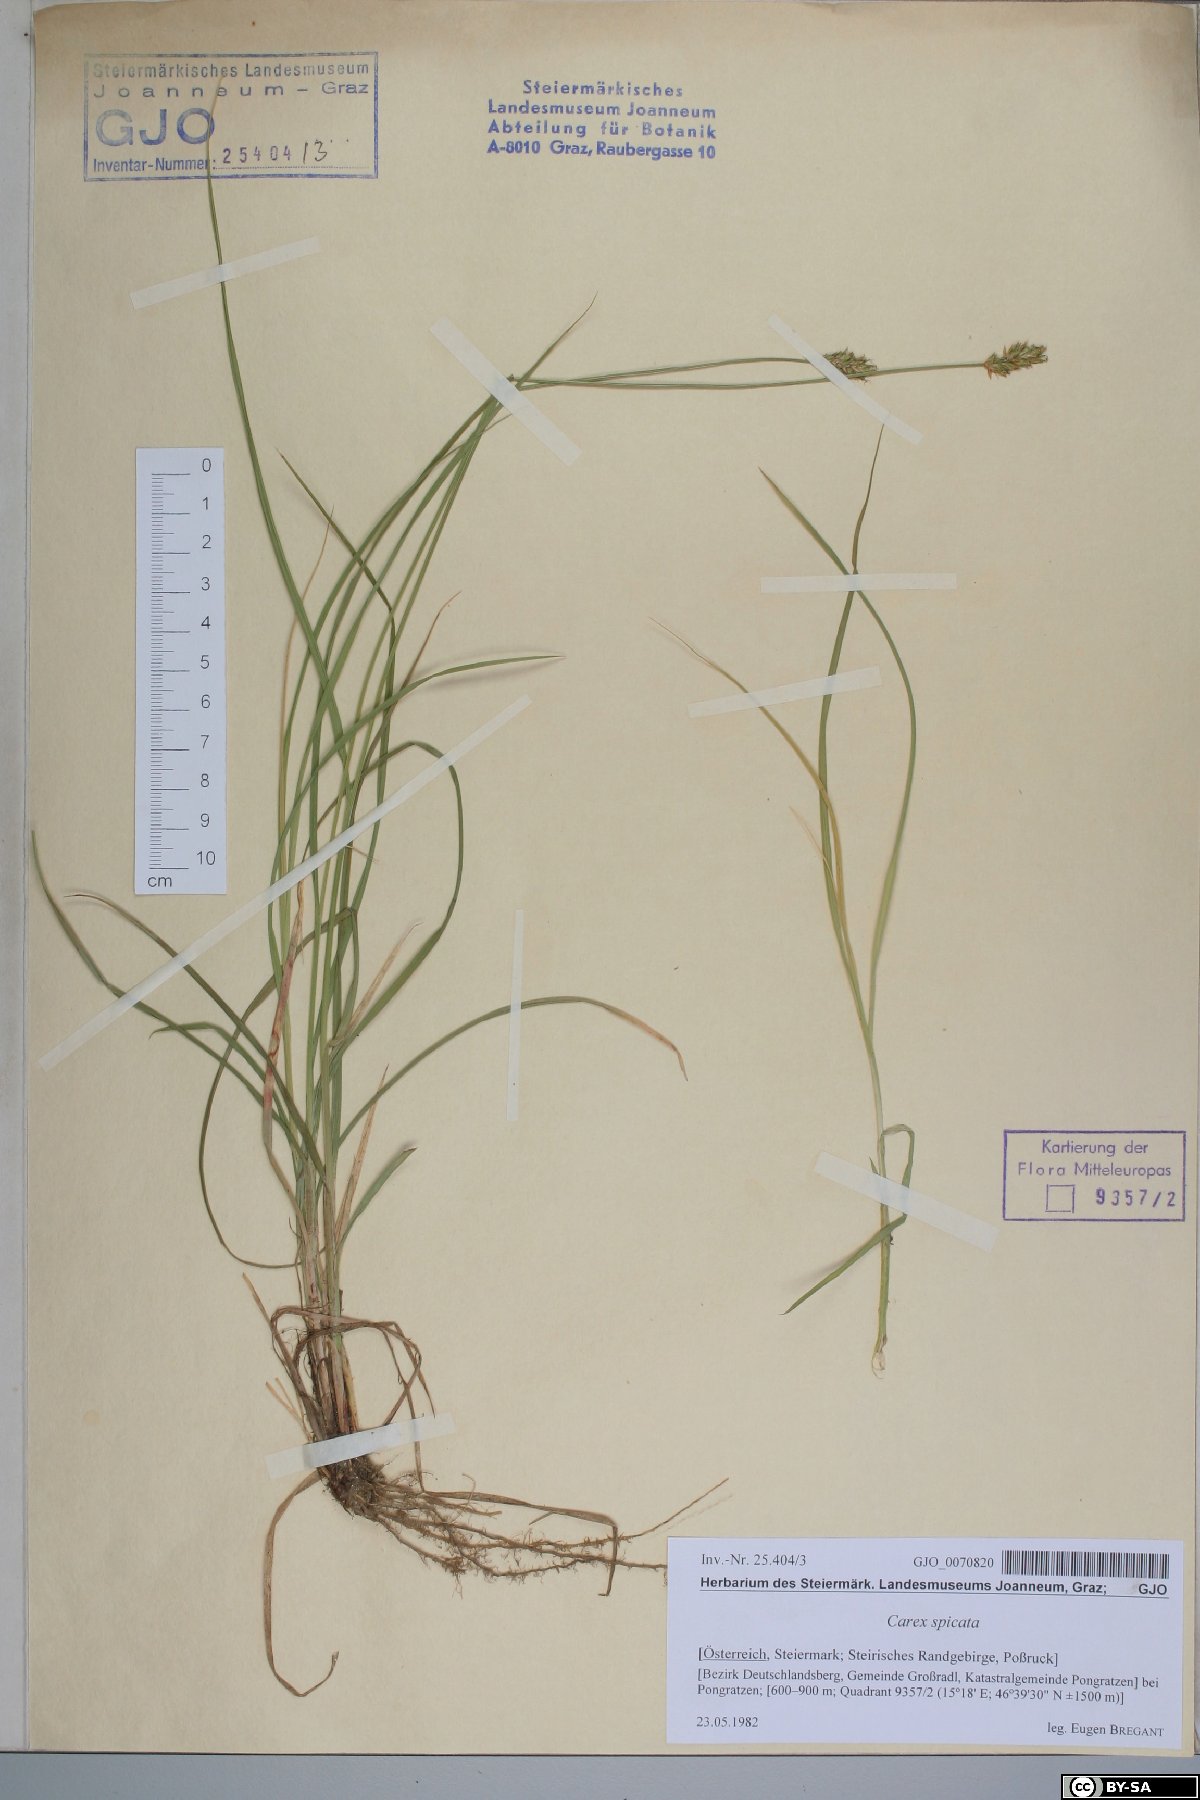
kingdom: Plantae
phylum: Tracheophyta
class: Liliopsida
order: Poales
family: Cyperaceae
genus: Carex
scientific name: Carex spicata
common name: Spiked sedge
